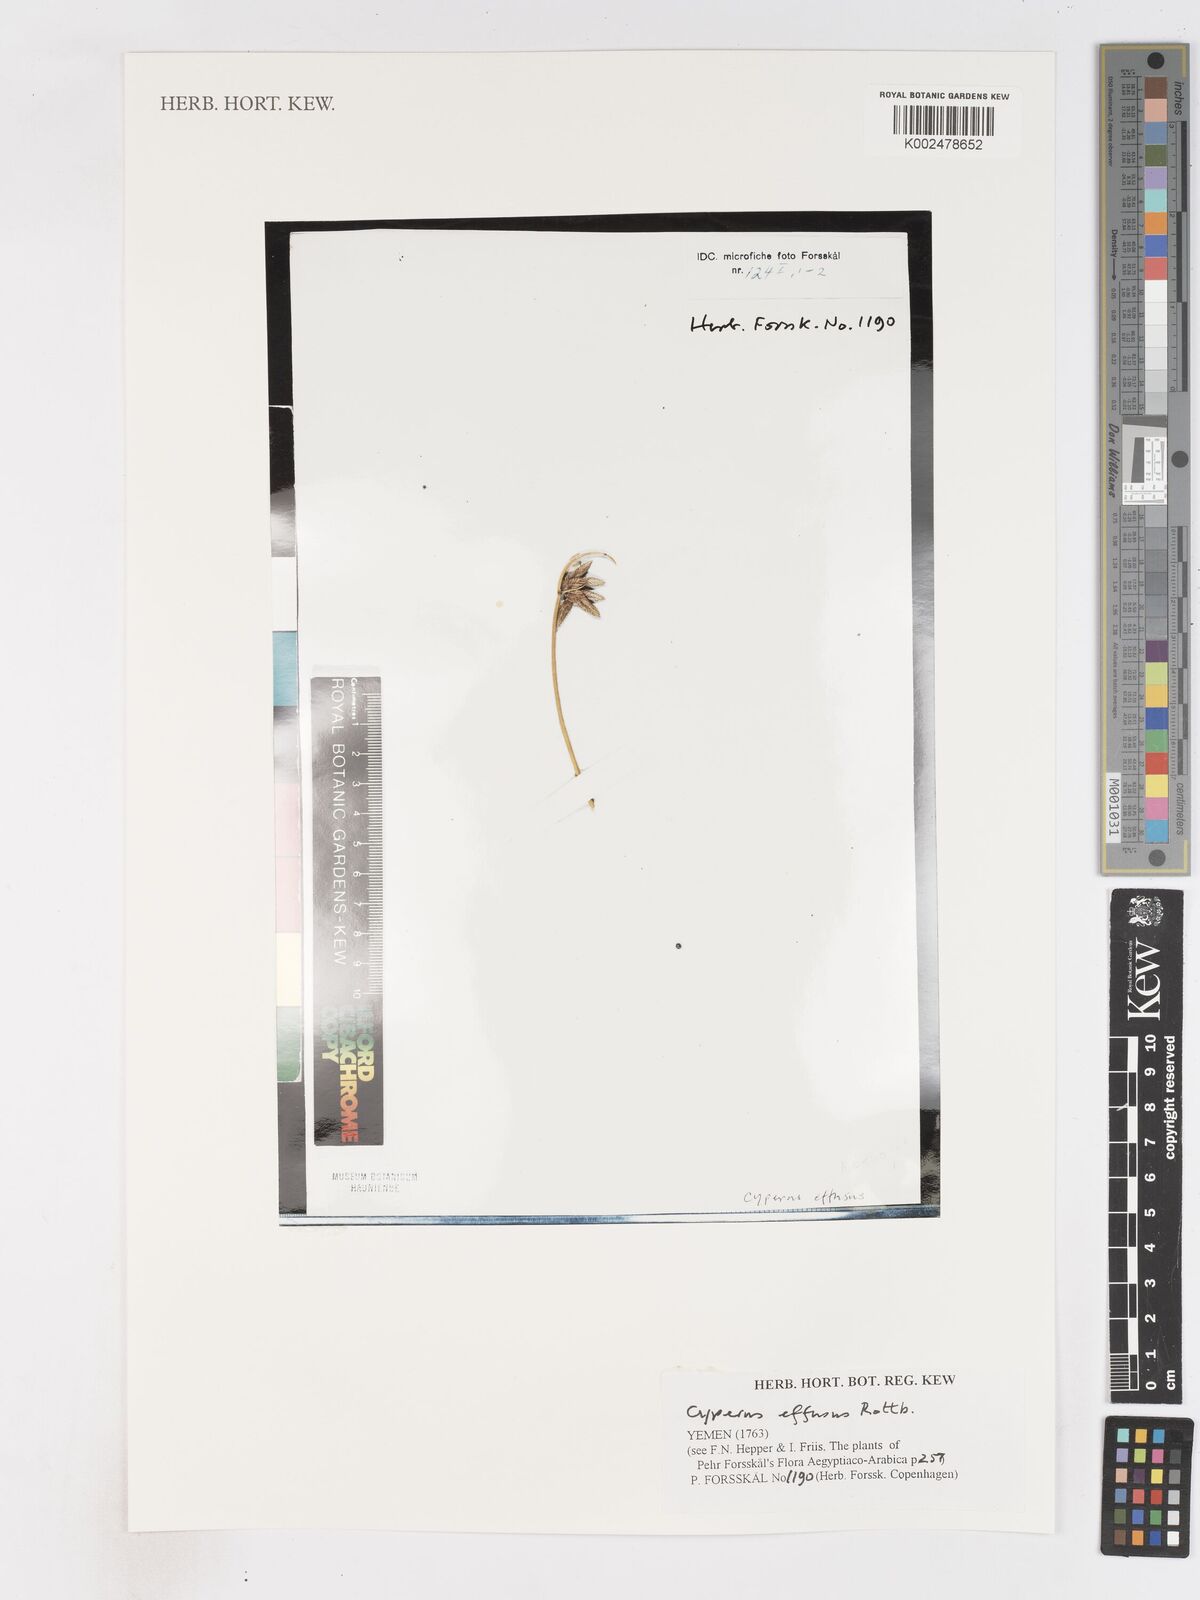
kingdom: Plantae
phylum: Tracheophyta
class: Liliopsida
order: Poales
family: Cyperaceae
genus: Cyperus
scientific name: Cyperus conglomeratus
